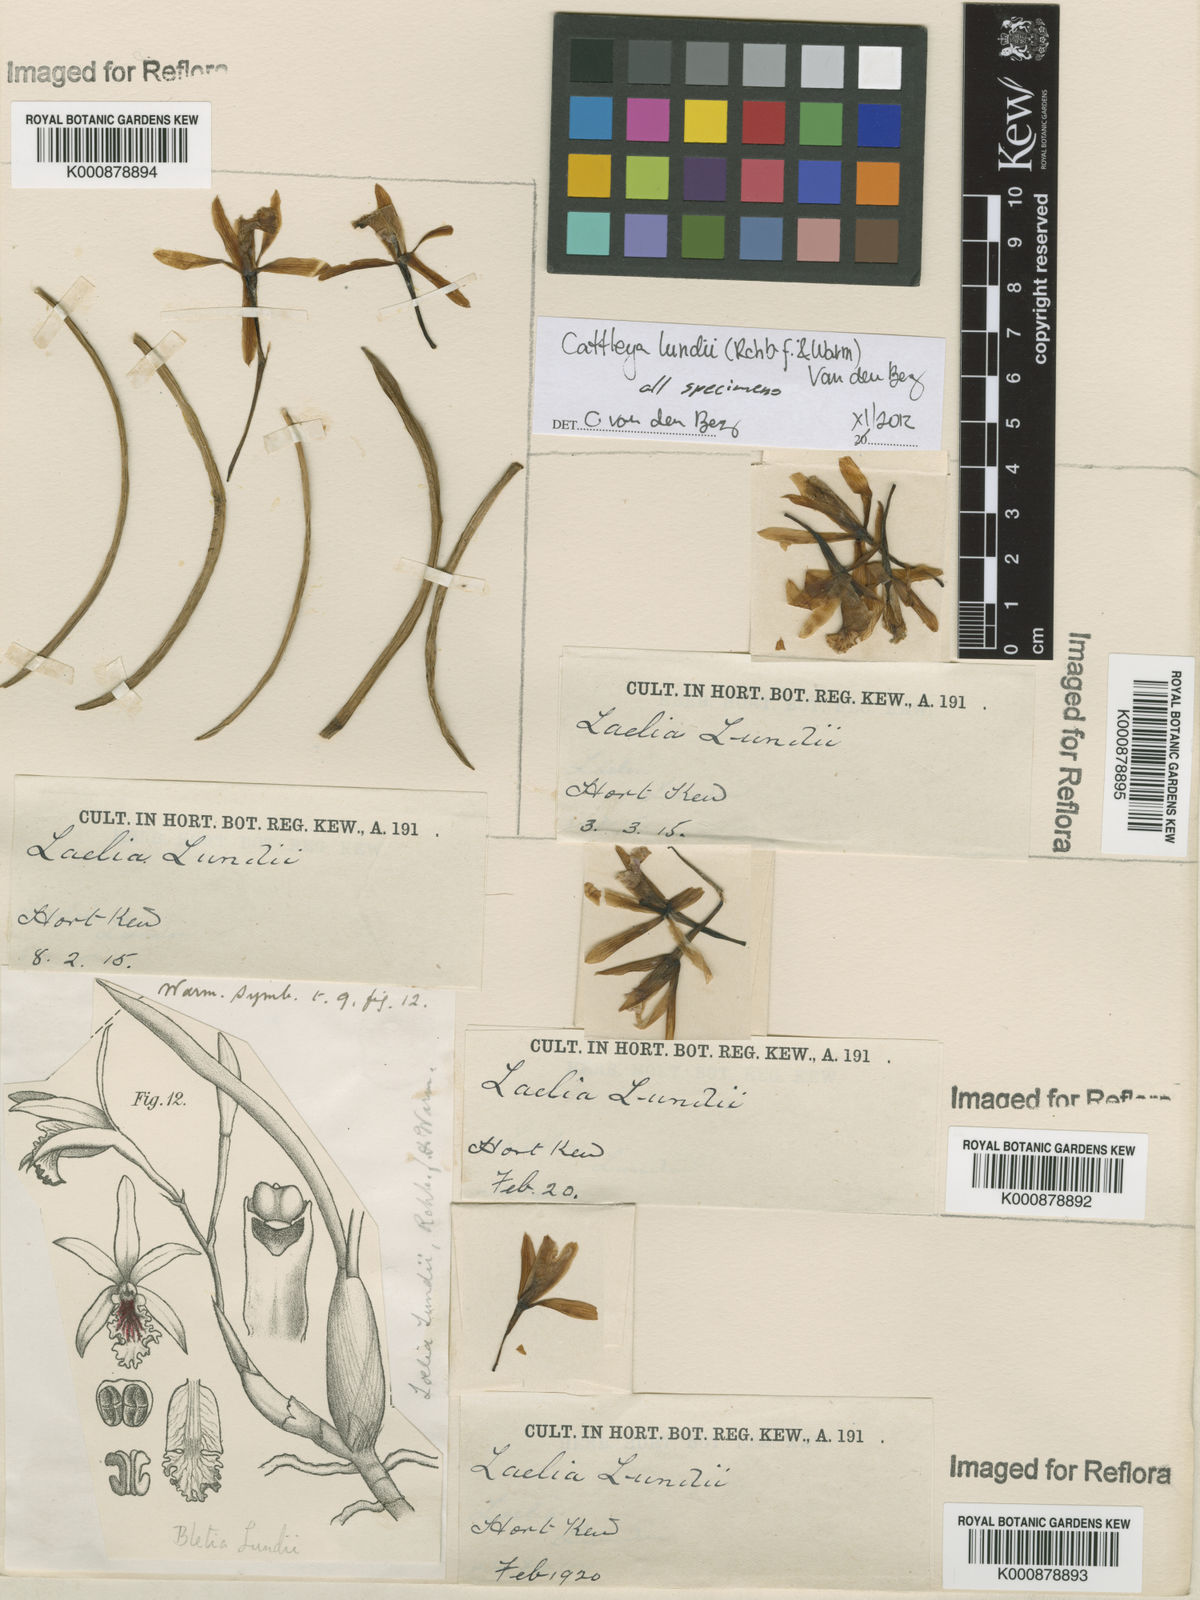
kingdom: Plantae
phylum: Tracheophyta
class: Liliopsida
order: Asparagales
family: Orchidaceae
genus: Cattleya
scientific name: Cattleya lundii
